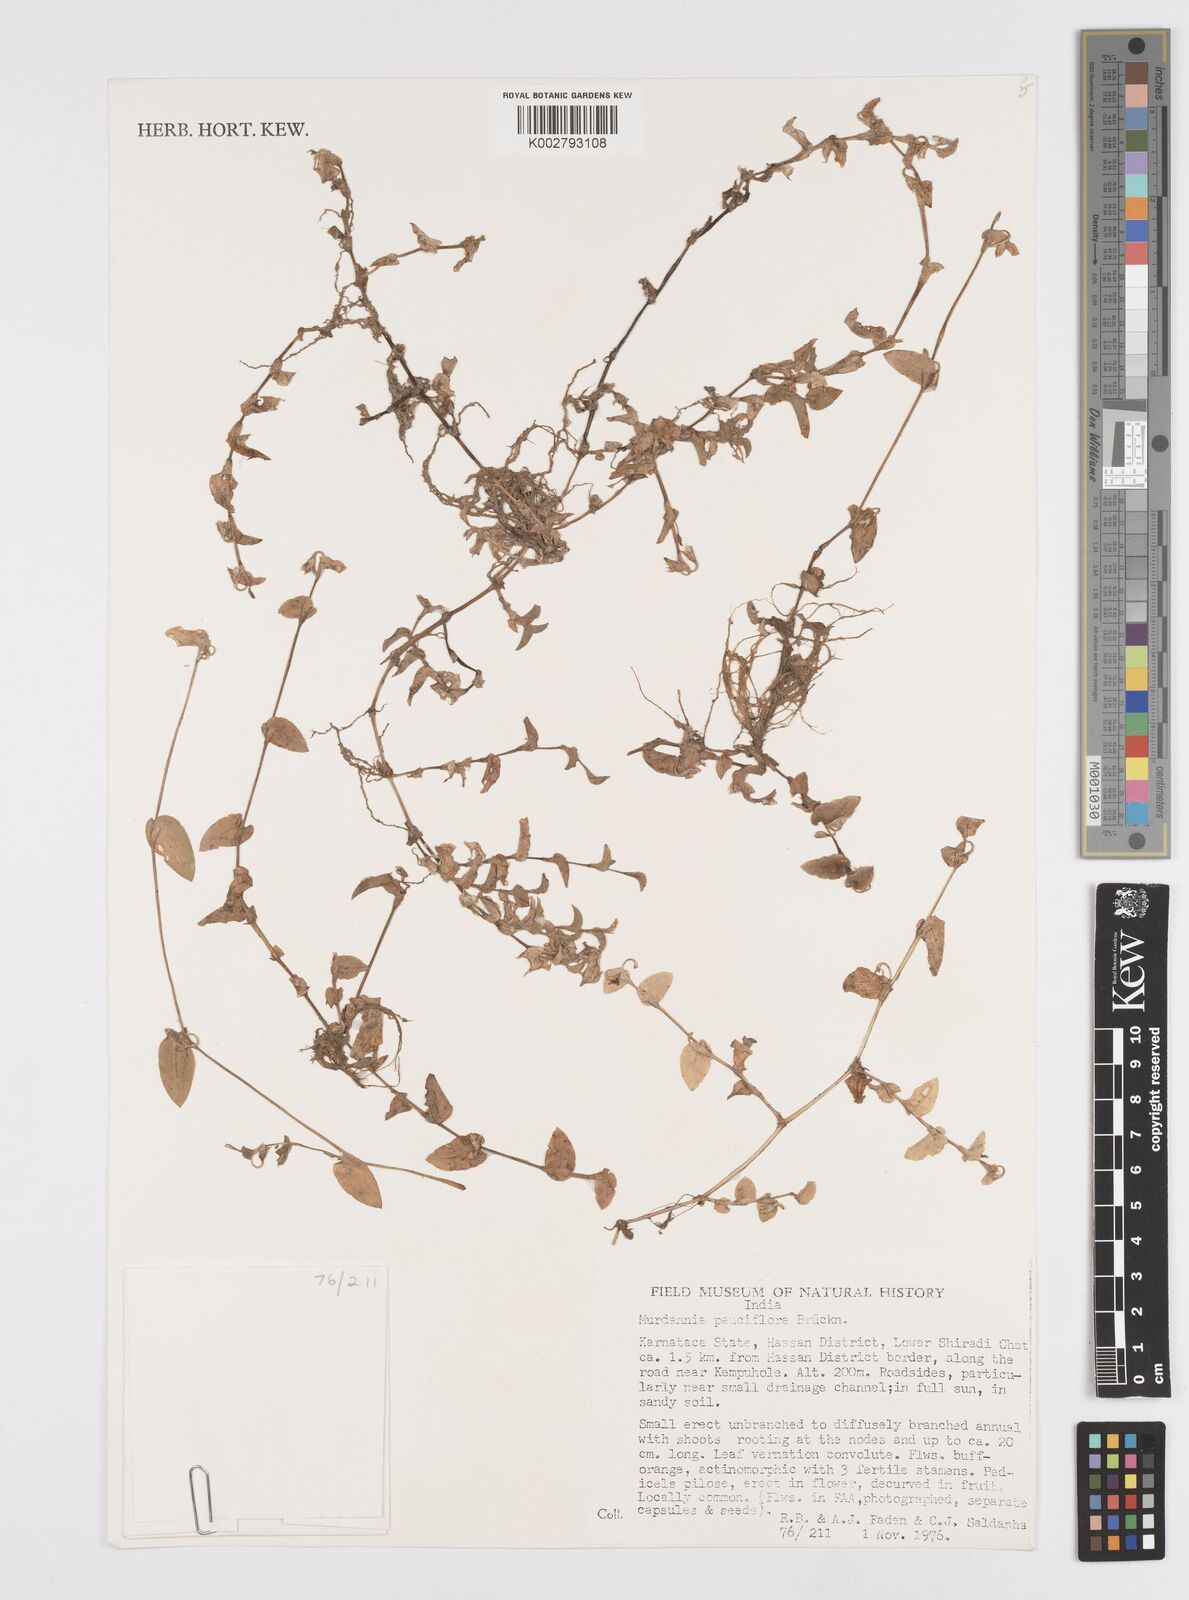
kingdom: Plantae
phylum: Tracheophyta
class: Liliopsida
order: Commelinales
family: Commelinaceae
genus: Murdannia
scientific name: Murdannia pauciflora
